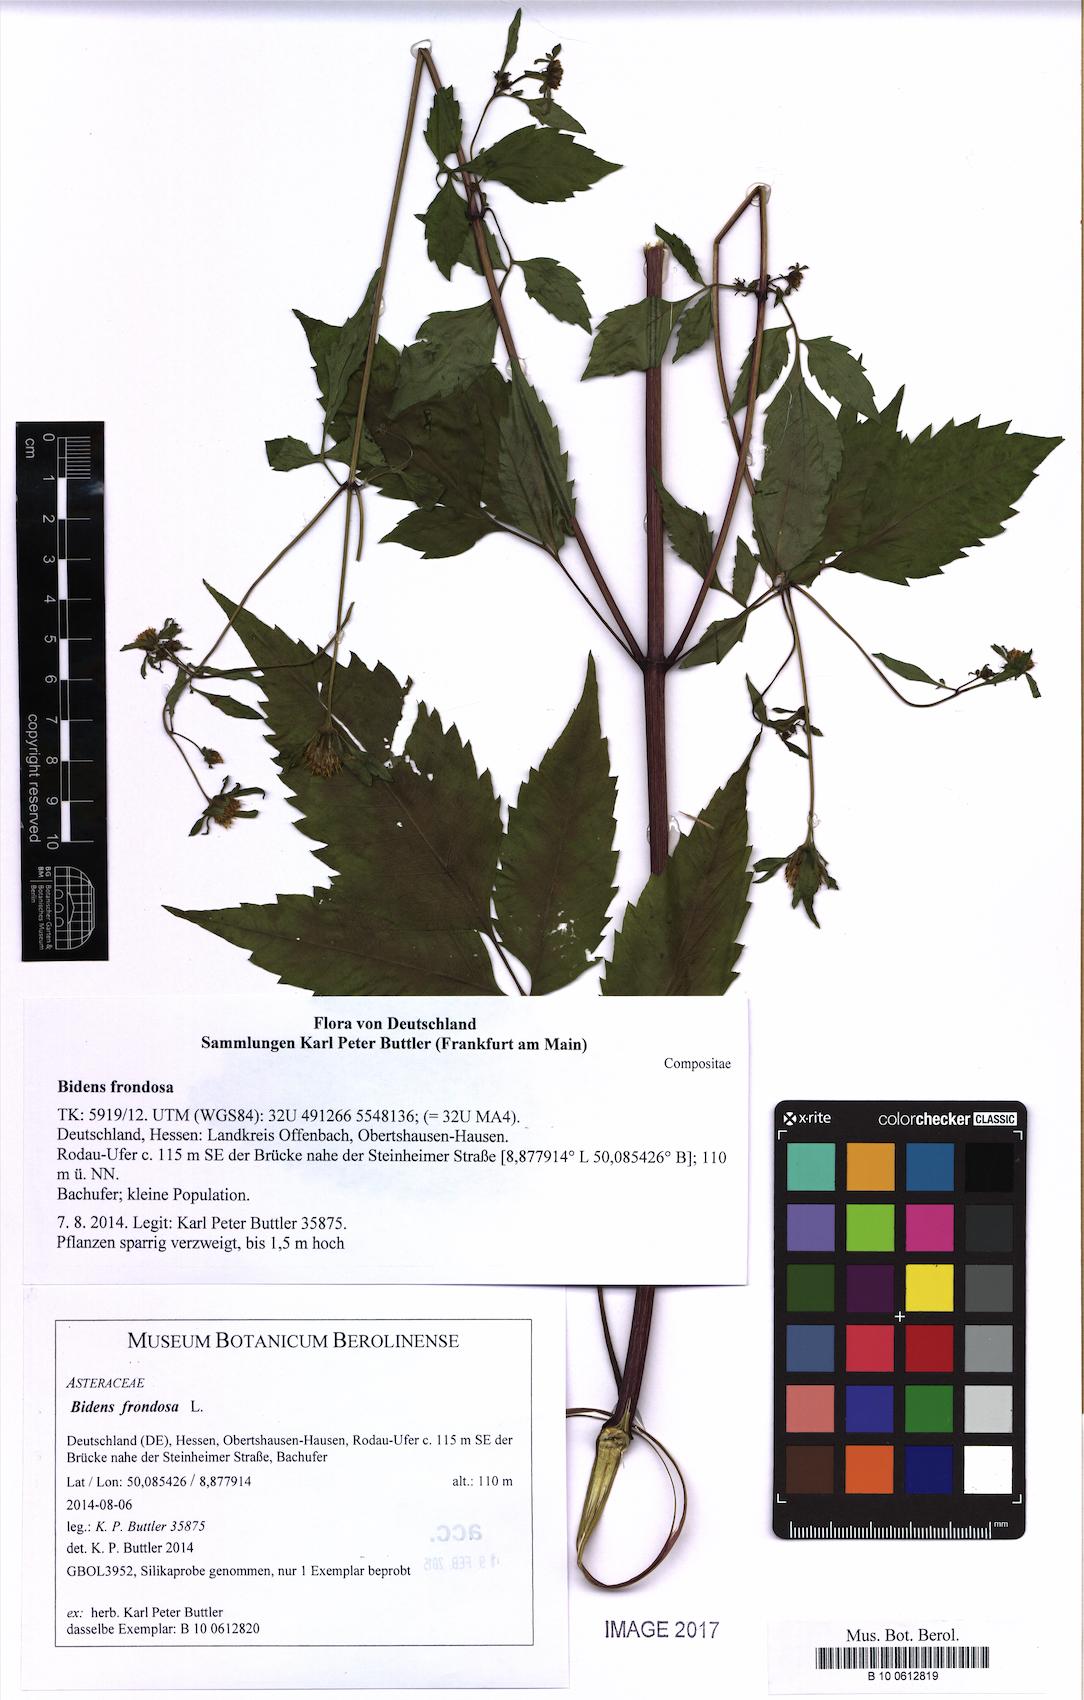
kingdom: Plantae
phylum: Tracheophyta
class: Magnoliopsida
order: Asterales
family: Asteraceae
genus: Bidens
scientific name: Bidens frondosa
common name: Beggarticks
